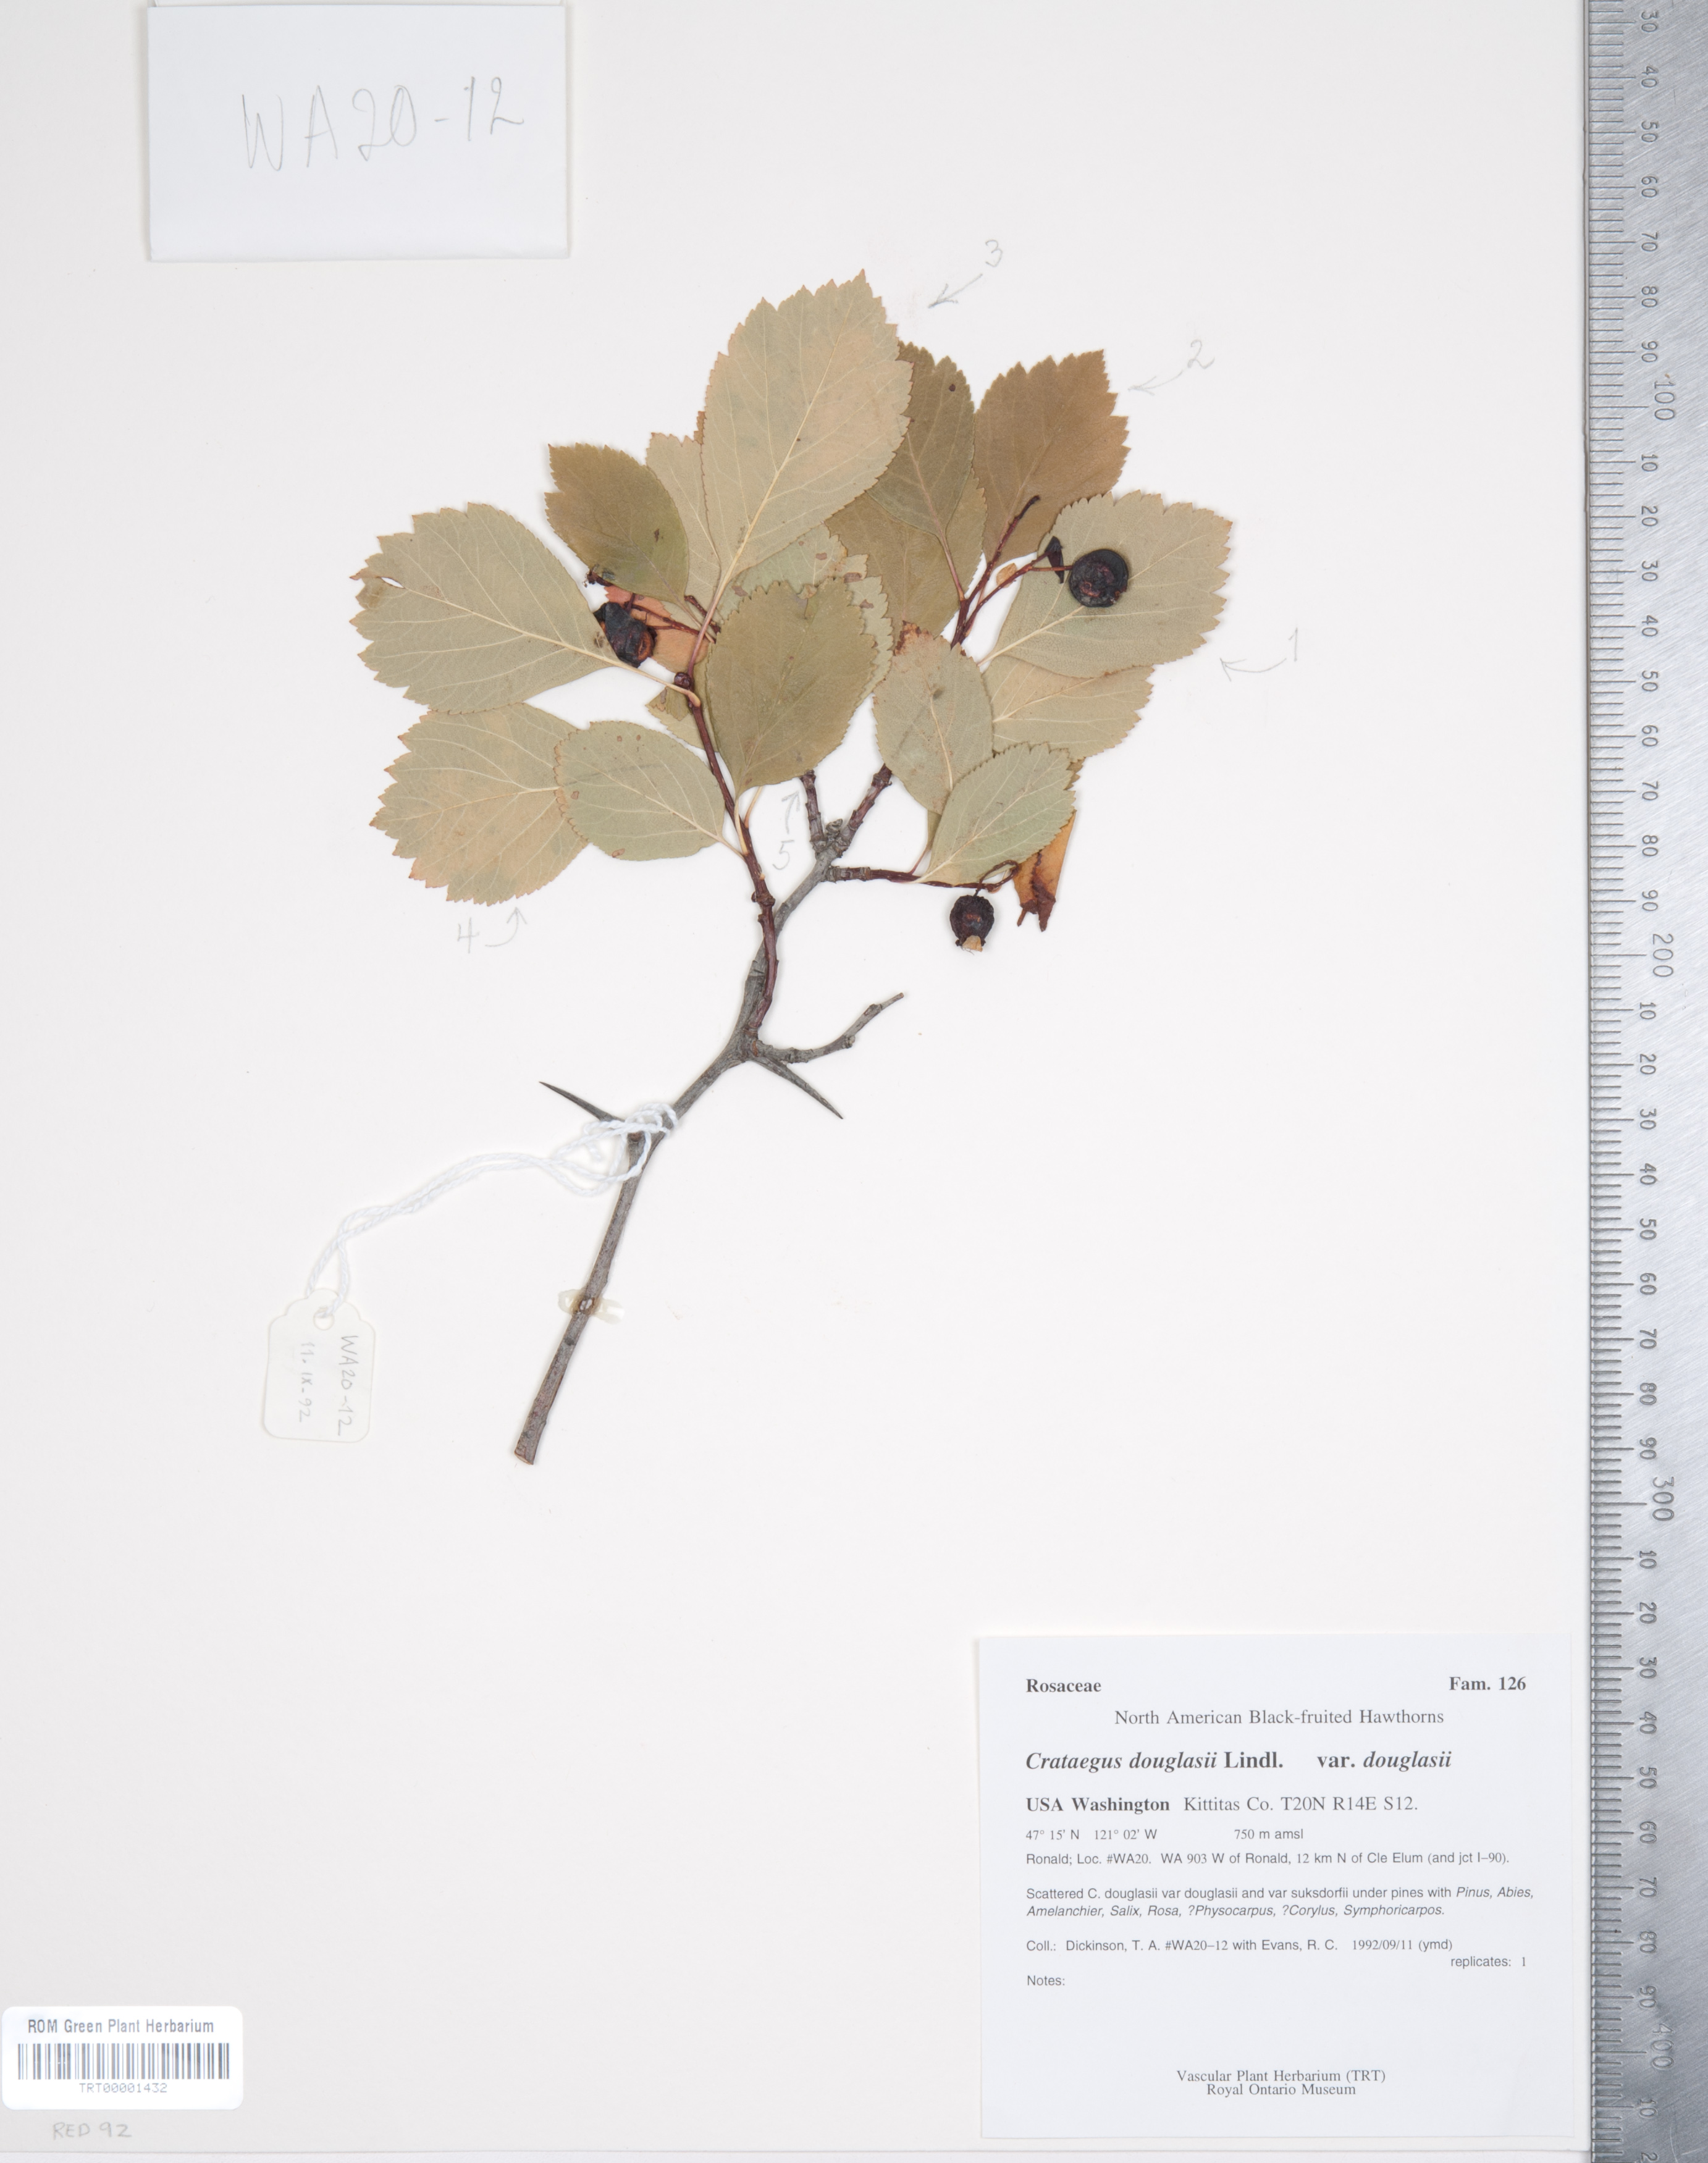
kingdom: Plantae
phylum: Tracheophyta
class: Magnoliopsida
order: Rosales
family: Rosaceae
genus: Crataegus
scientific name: Crataegus douglasii
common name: Black hawthorn
